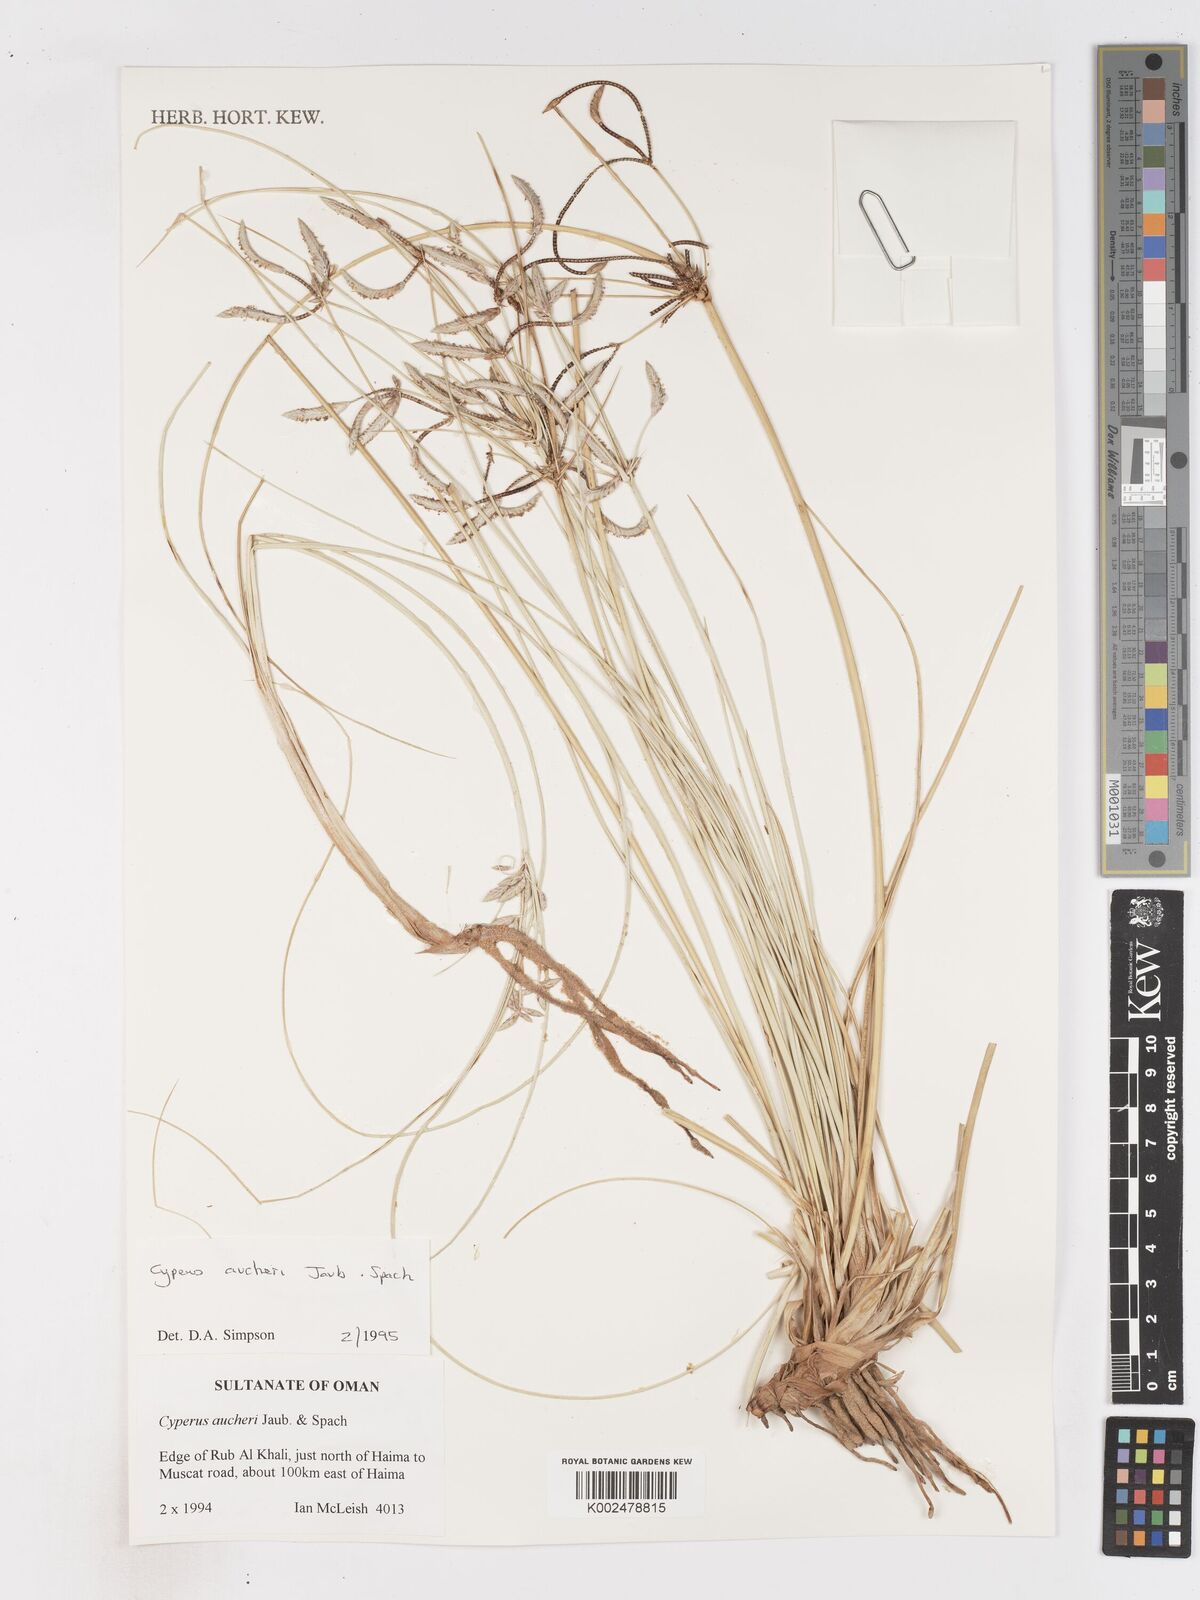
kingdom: Plantae
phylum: Tracheophyta
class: Liliopsida
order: Poales
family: Cyperaceae
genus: Cyperus
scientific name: Cyperus aucheri
